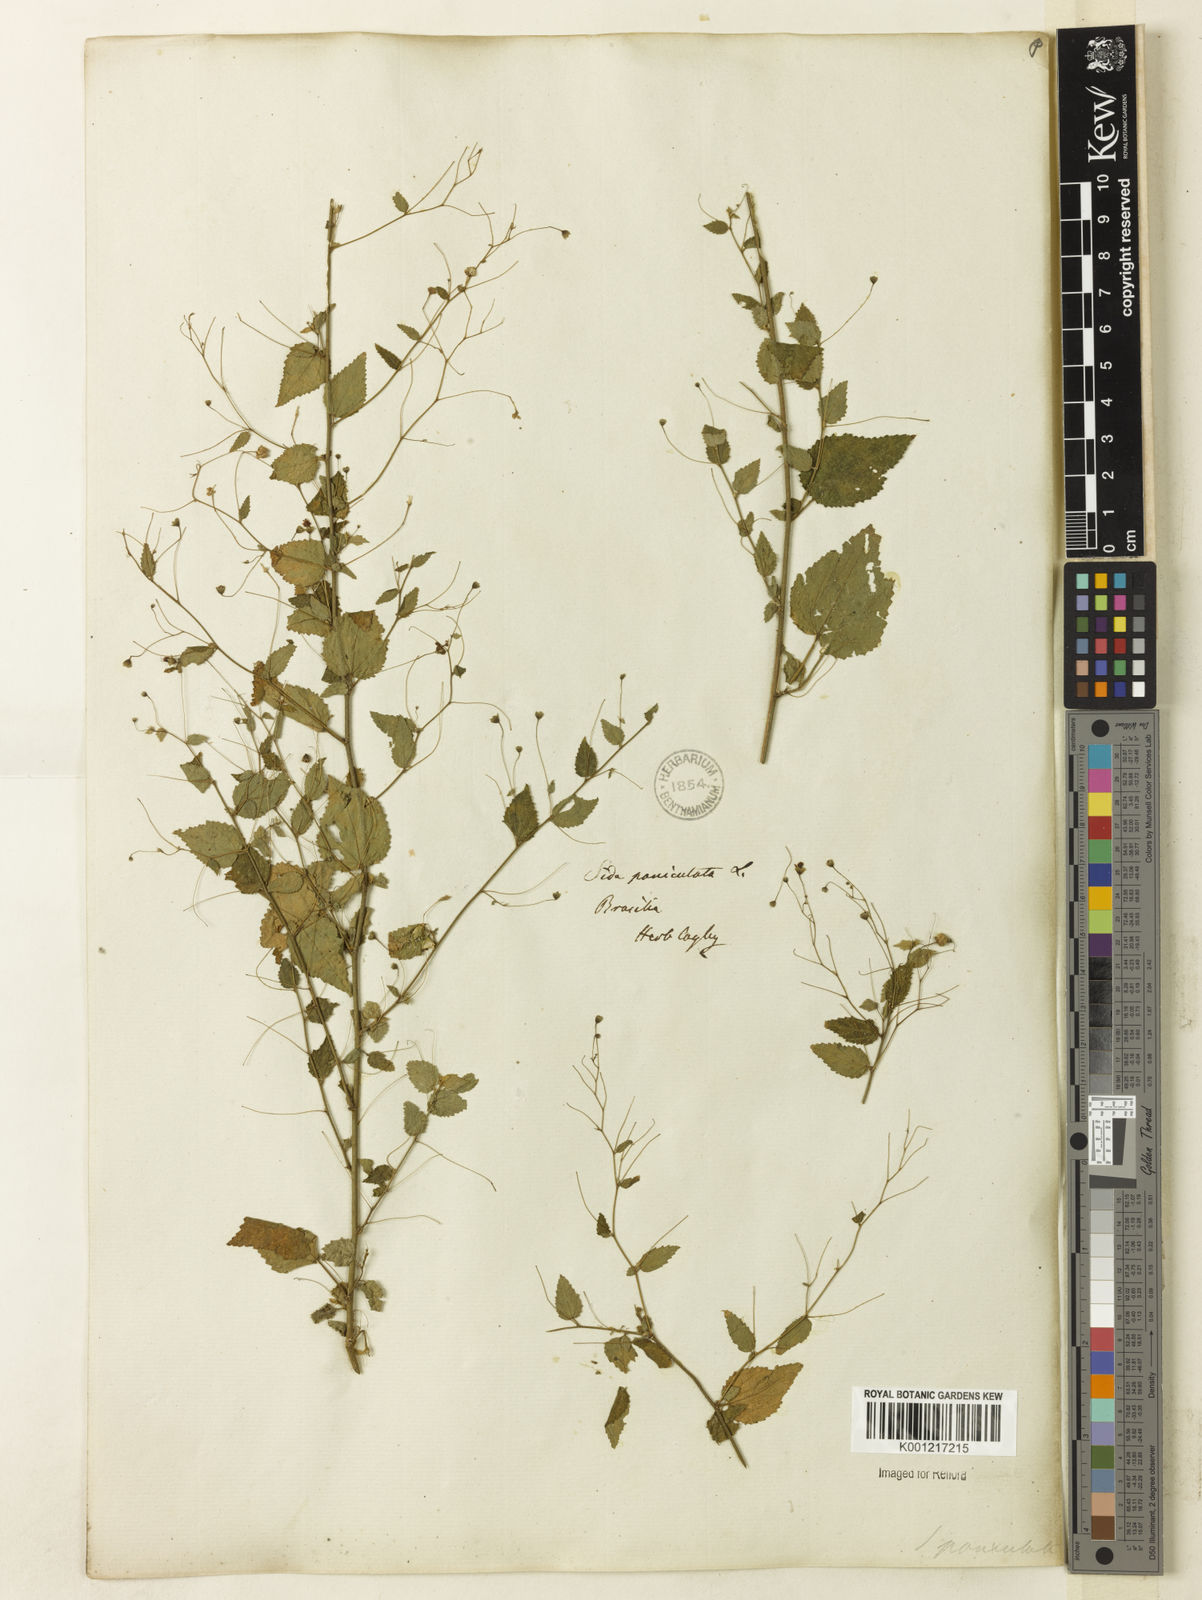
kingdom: Plantae
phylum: Tracheophyta
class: Magnoliopsida
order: Malvales
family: Malvaceae
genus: Sidastrum
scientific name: Sidastrum paniculatum
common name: Panicled sandmallow
